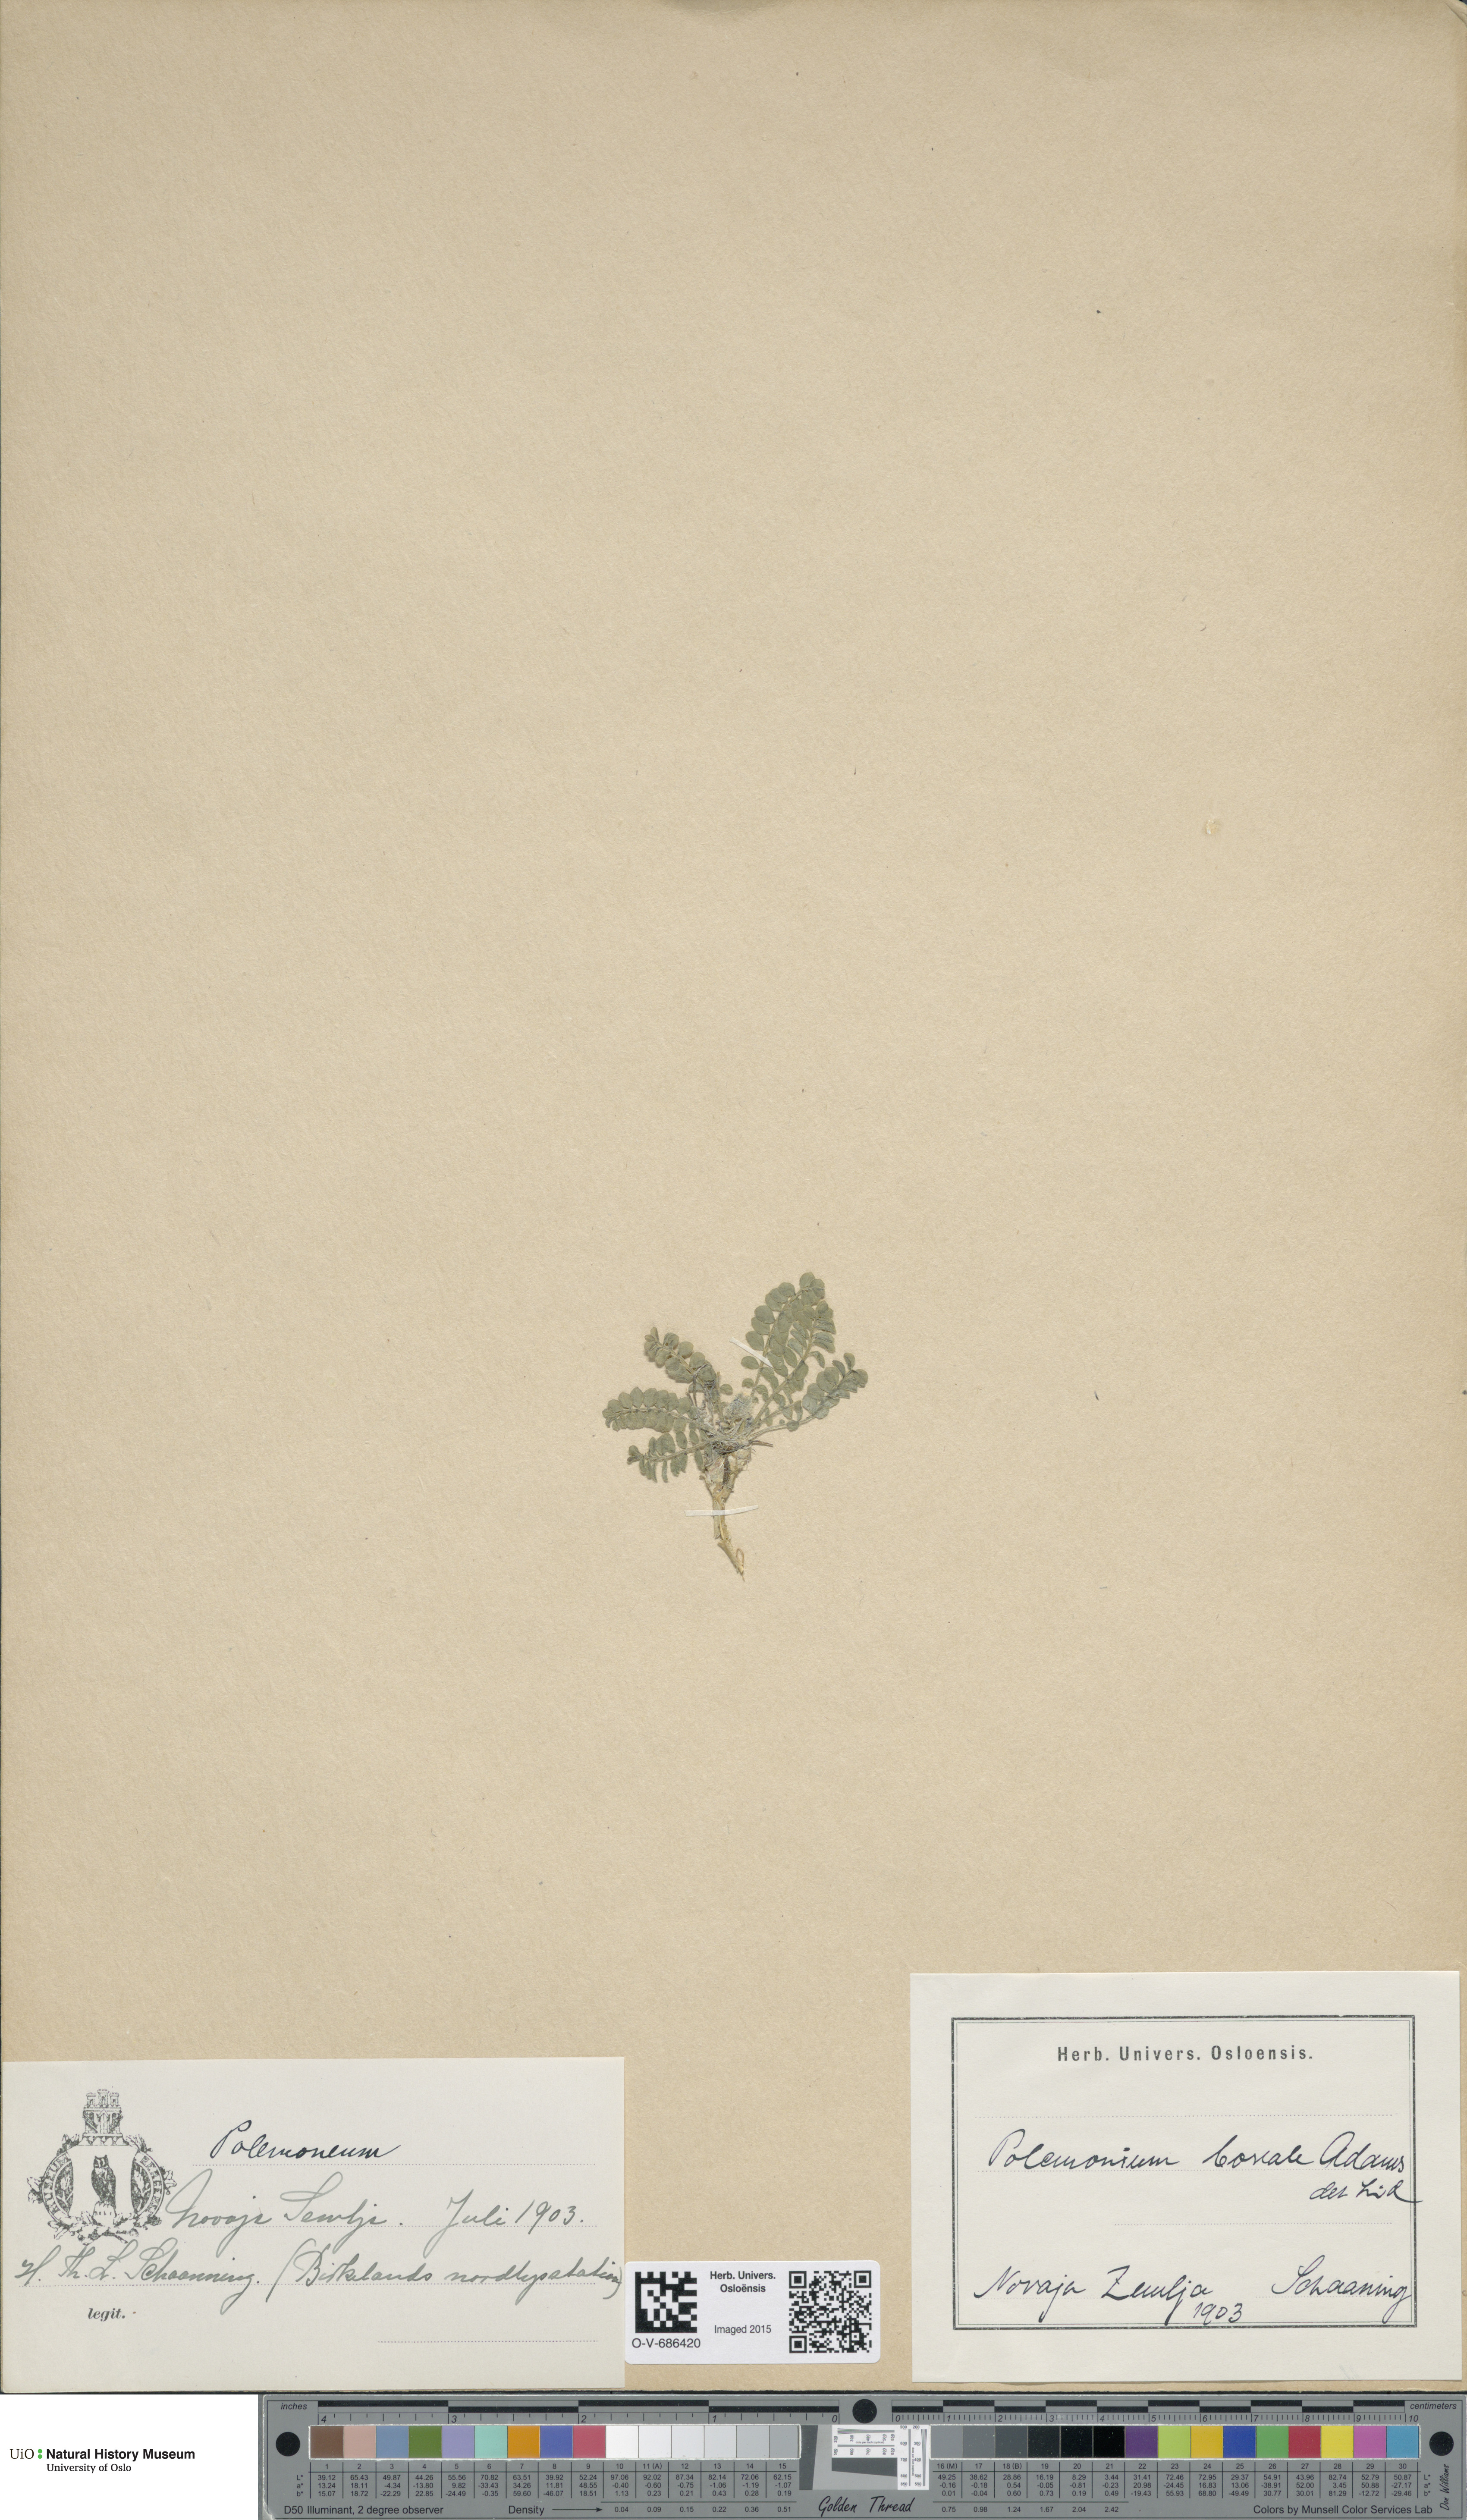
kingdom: Plantae
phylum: Tracheophyta
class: Magnoliopsida
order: Ericales
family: Polemoniaceae
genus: Polemonium
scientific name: Polemonium boreale
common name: Boreal jacob's-ladder
